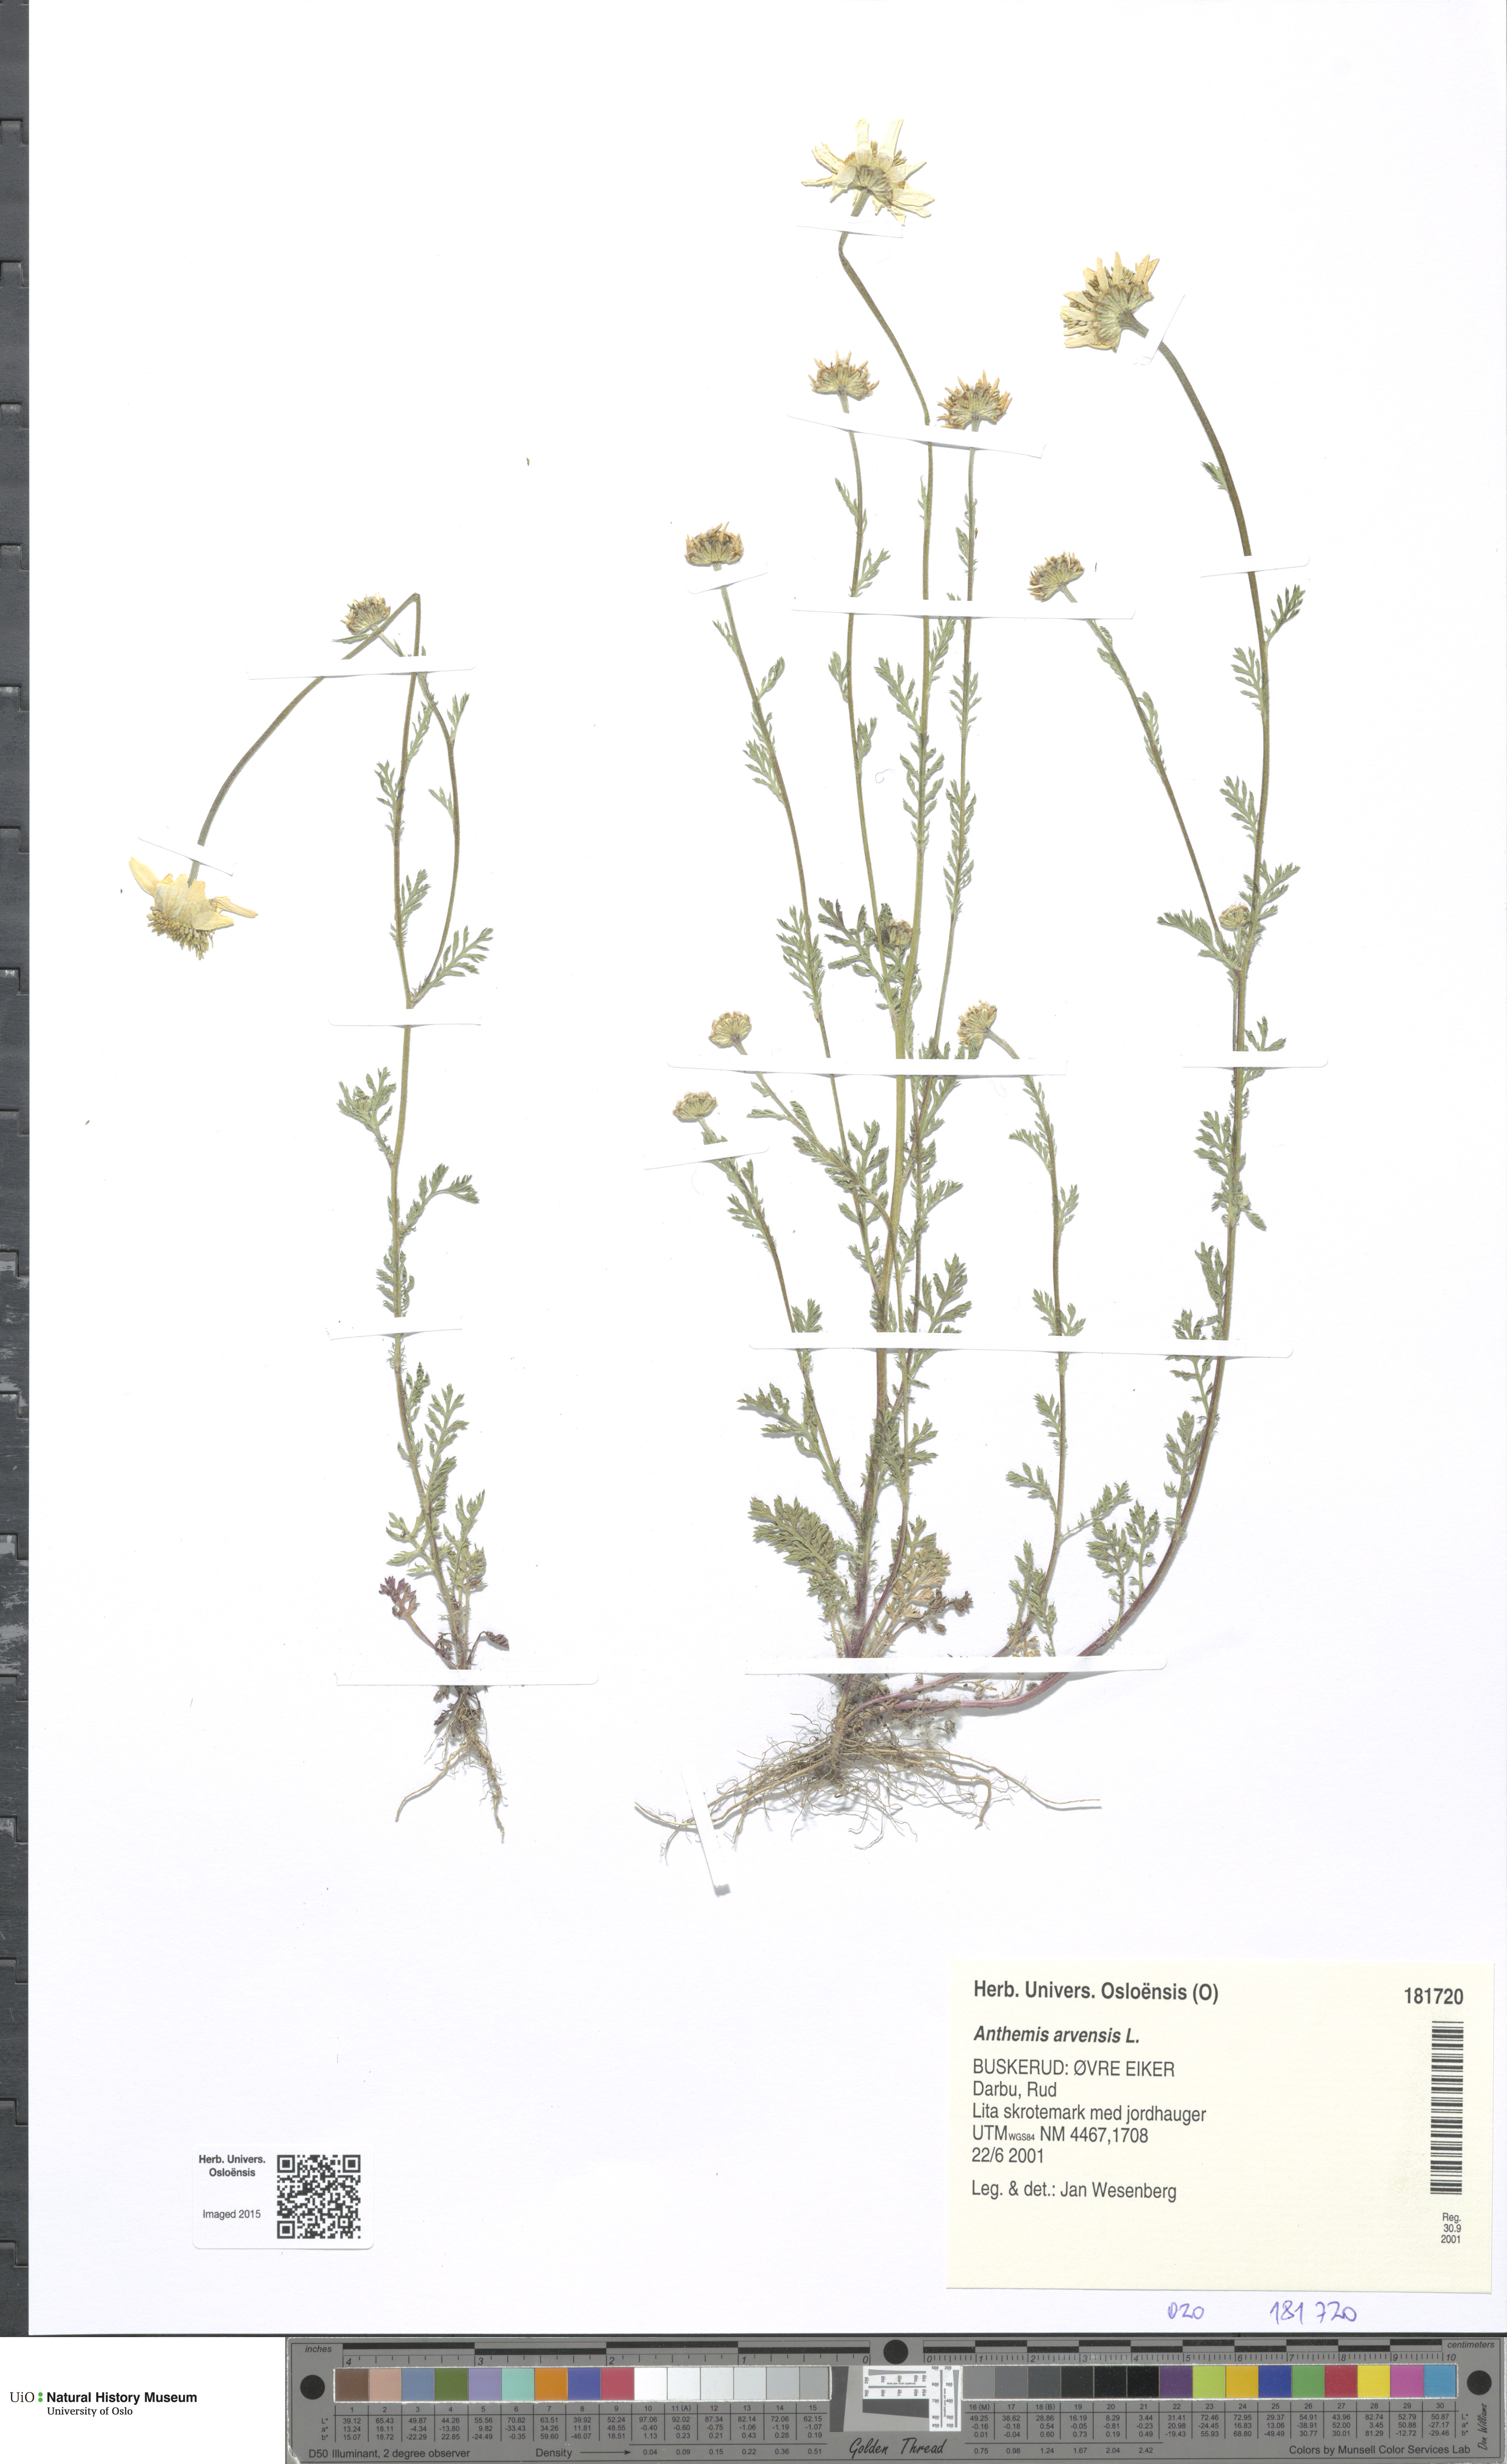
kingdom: Plantae
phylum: Tracheophyta
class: Magnoliopsida
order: Asterales
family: Asteraceae
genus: Anthemis
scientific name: Anthemis arvensis
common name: Corn chamomile
